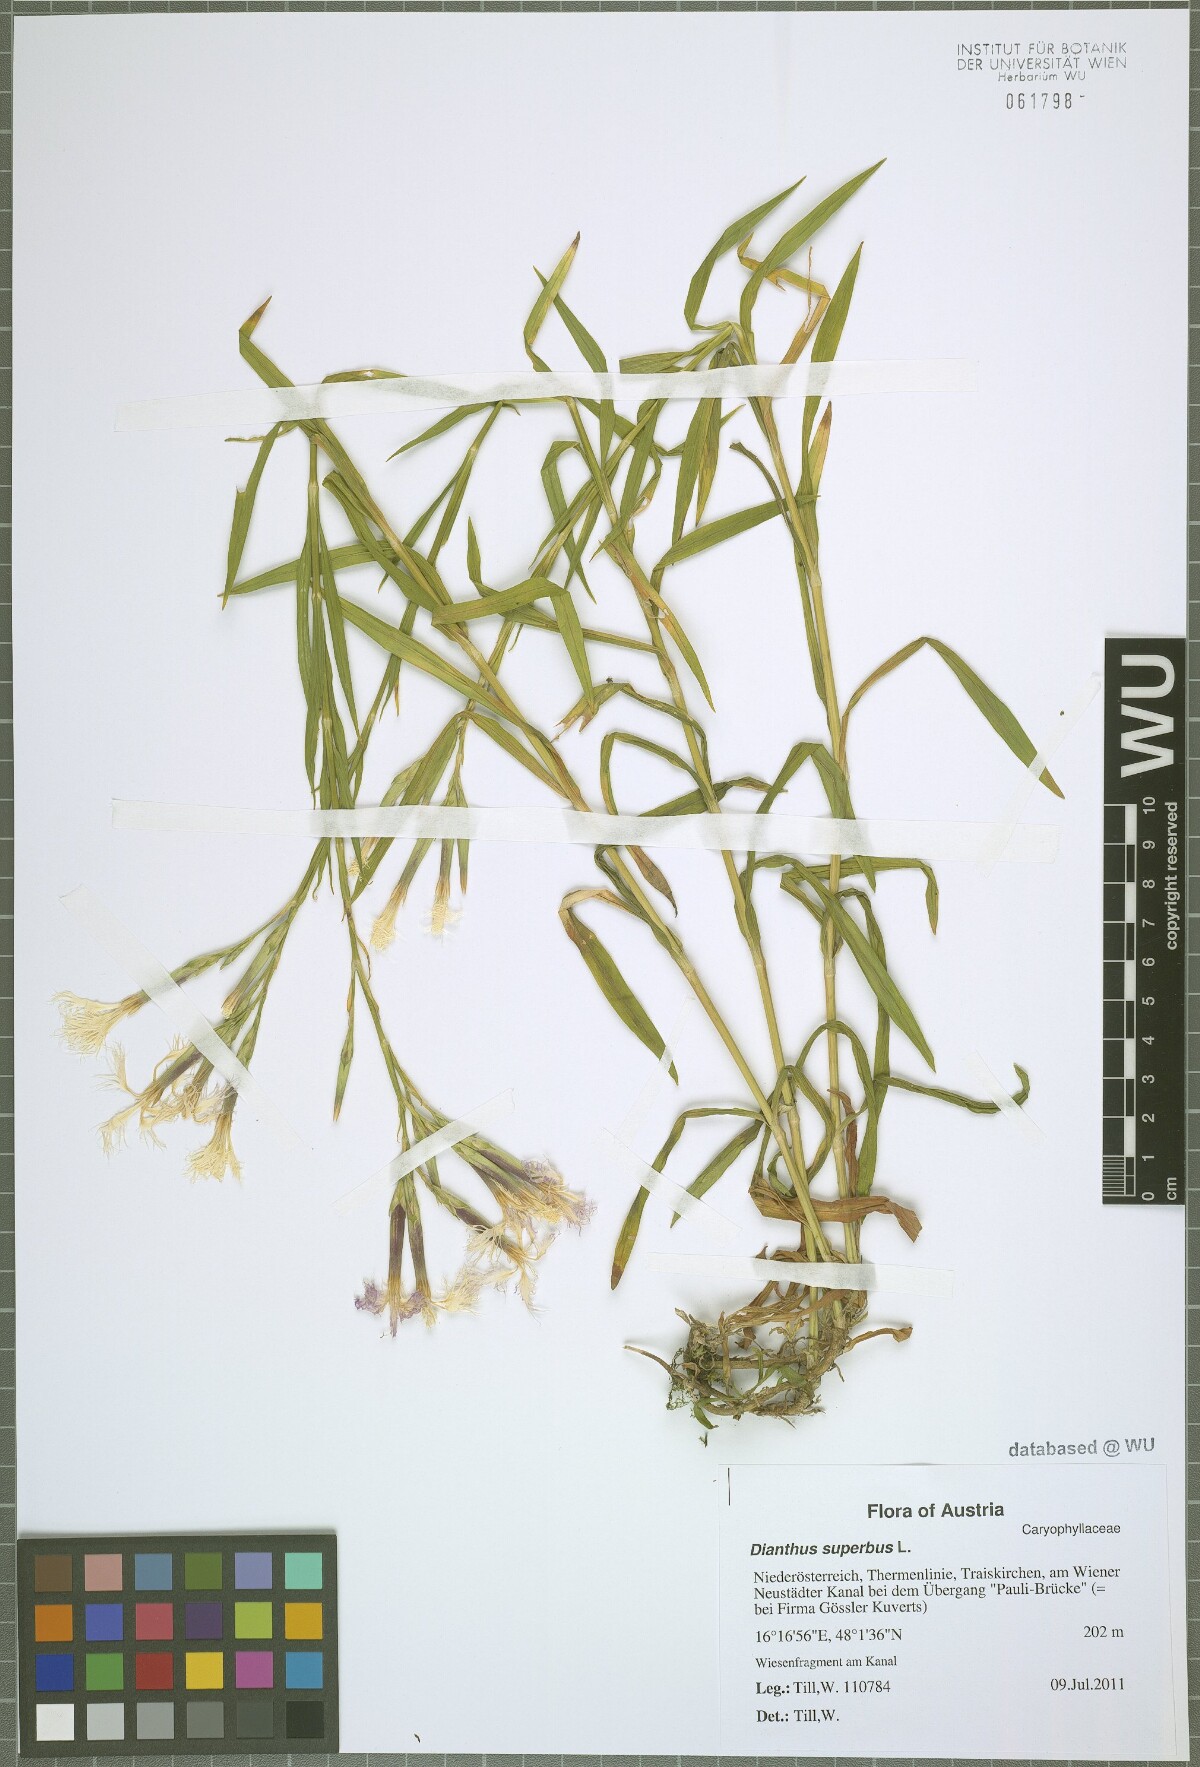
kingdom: Plantae
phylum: Tracheophyta
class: Magnoliopsida
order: Caryophyllales
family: Caryophyllaceae
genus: Dianthus
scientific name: Dianthus superbus
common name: Fringed pink
